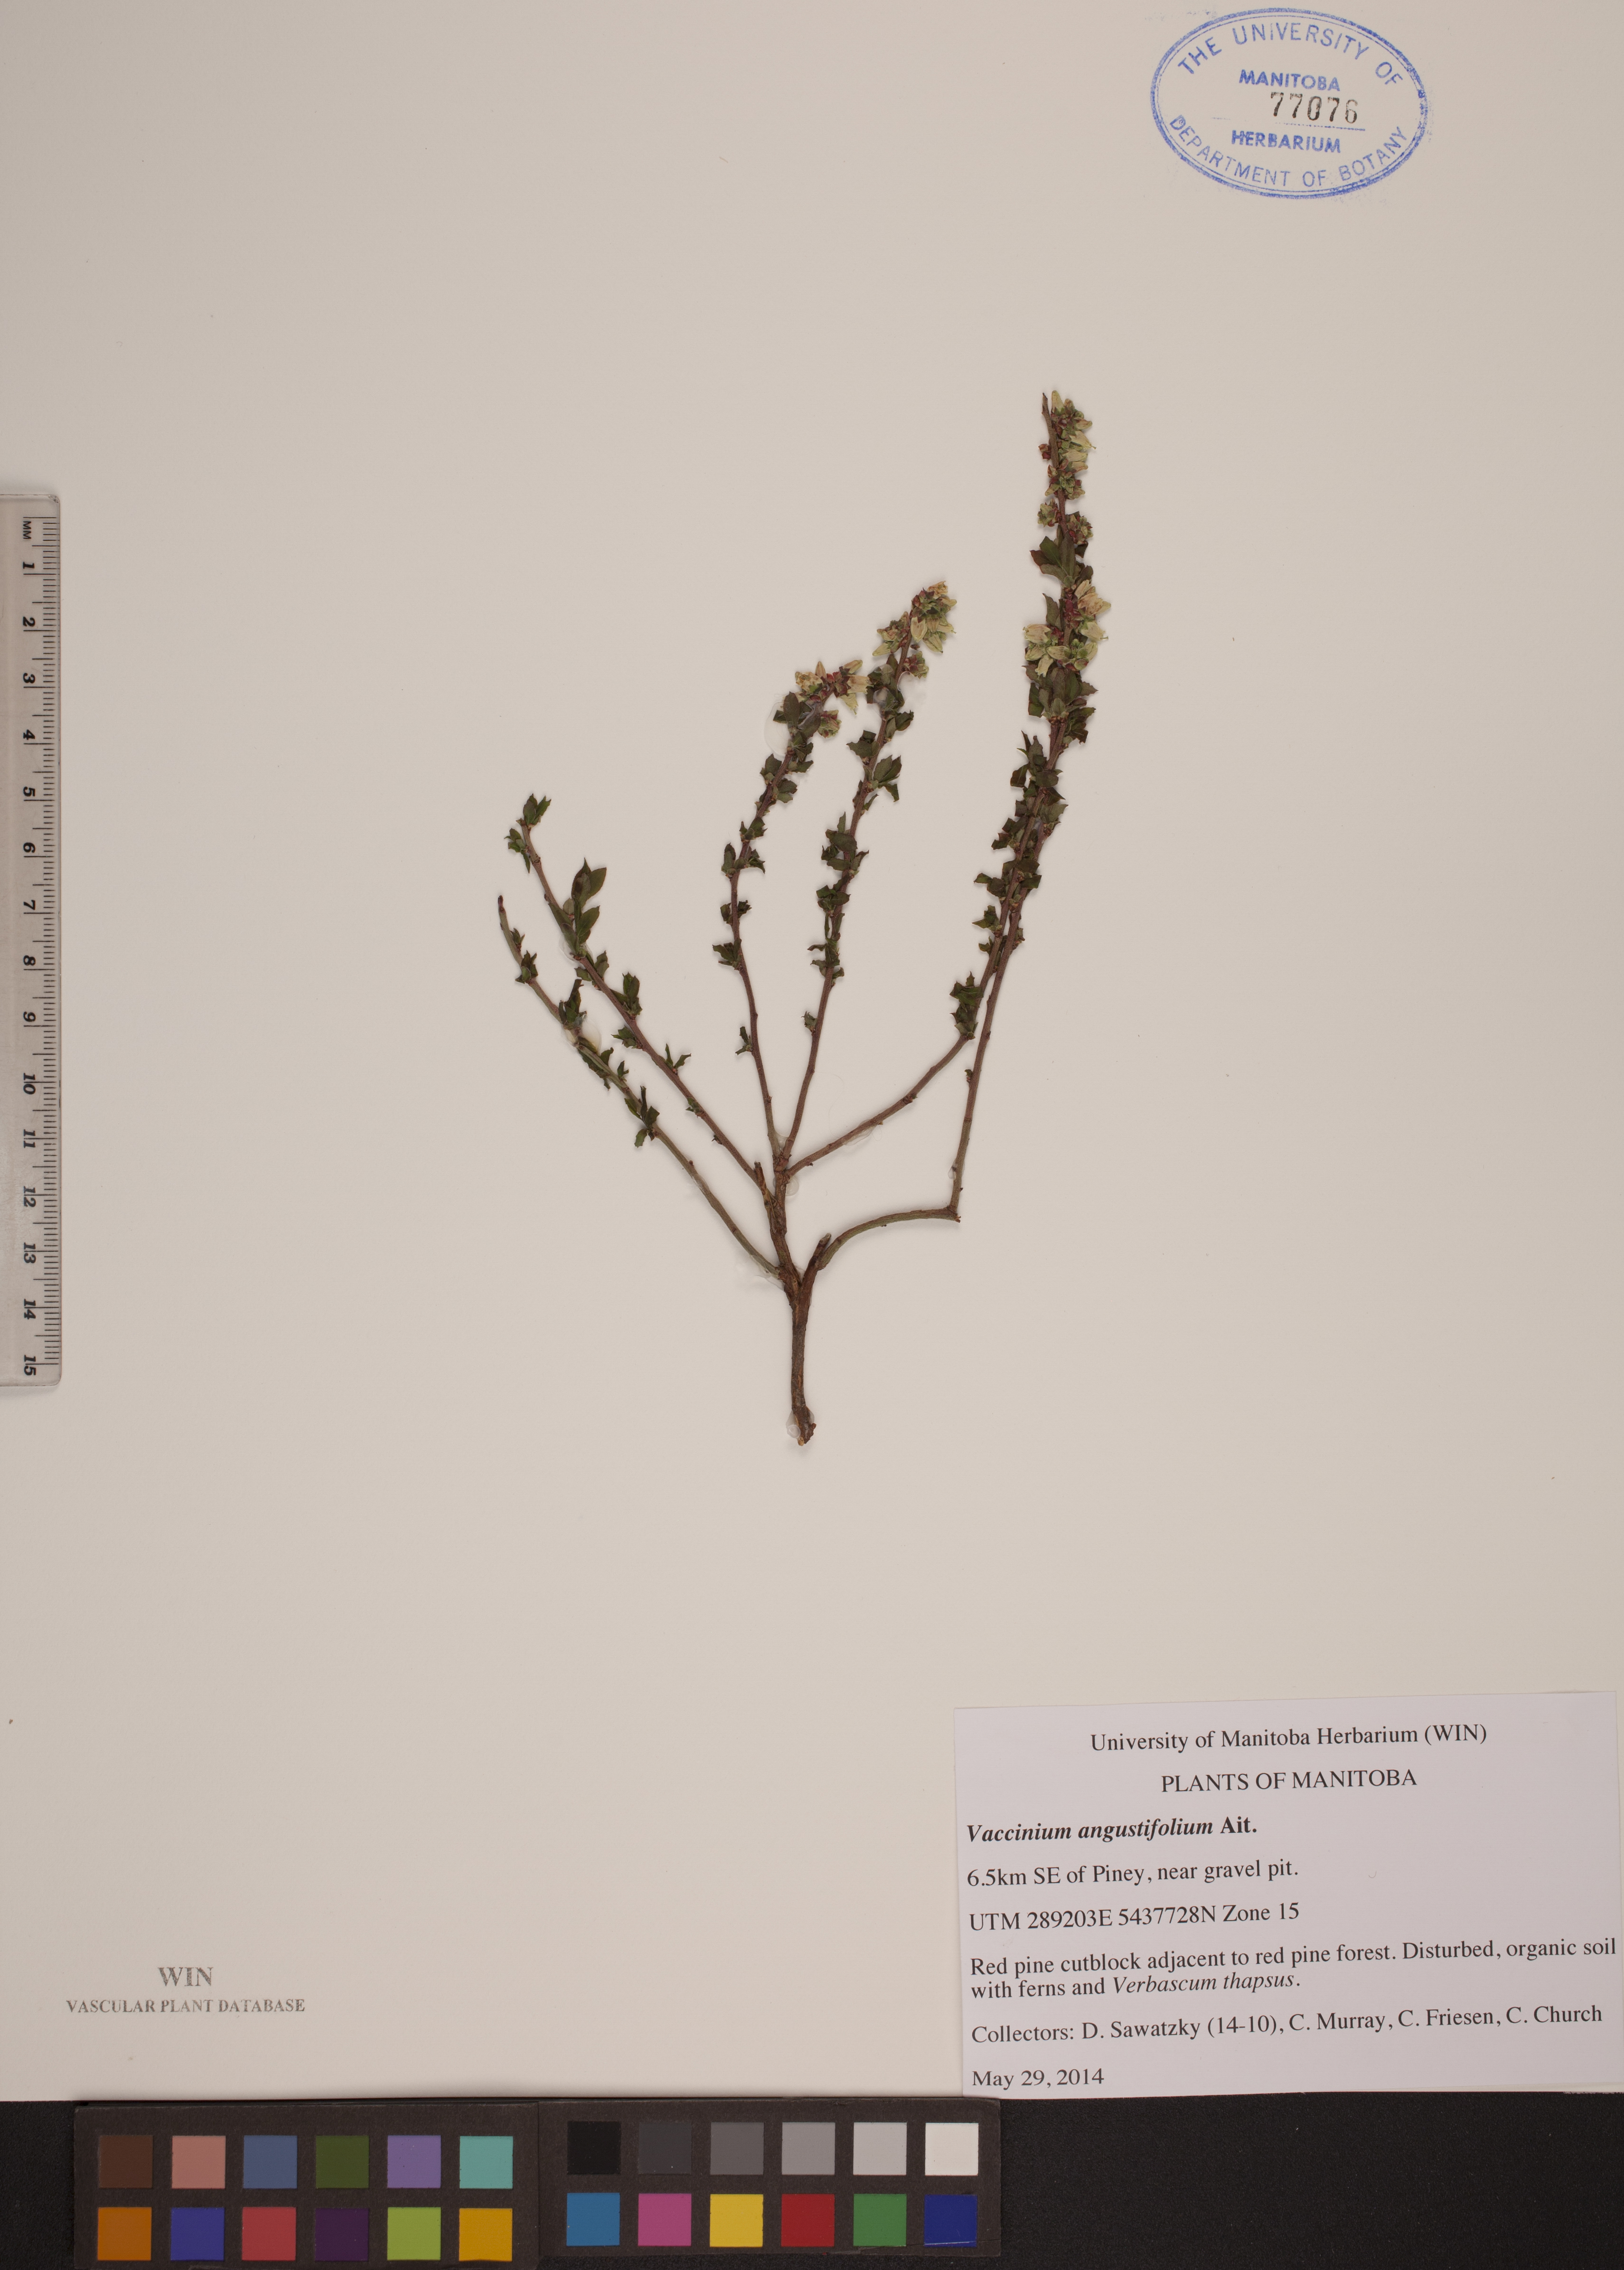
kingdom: Plantae
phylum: Tracheophyta
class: Magnoliopsida
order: Ericales
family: Ericaceae
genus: Vaccinium
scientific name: Vaccinium angustifolium
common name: Early lowbush blueberry
